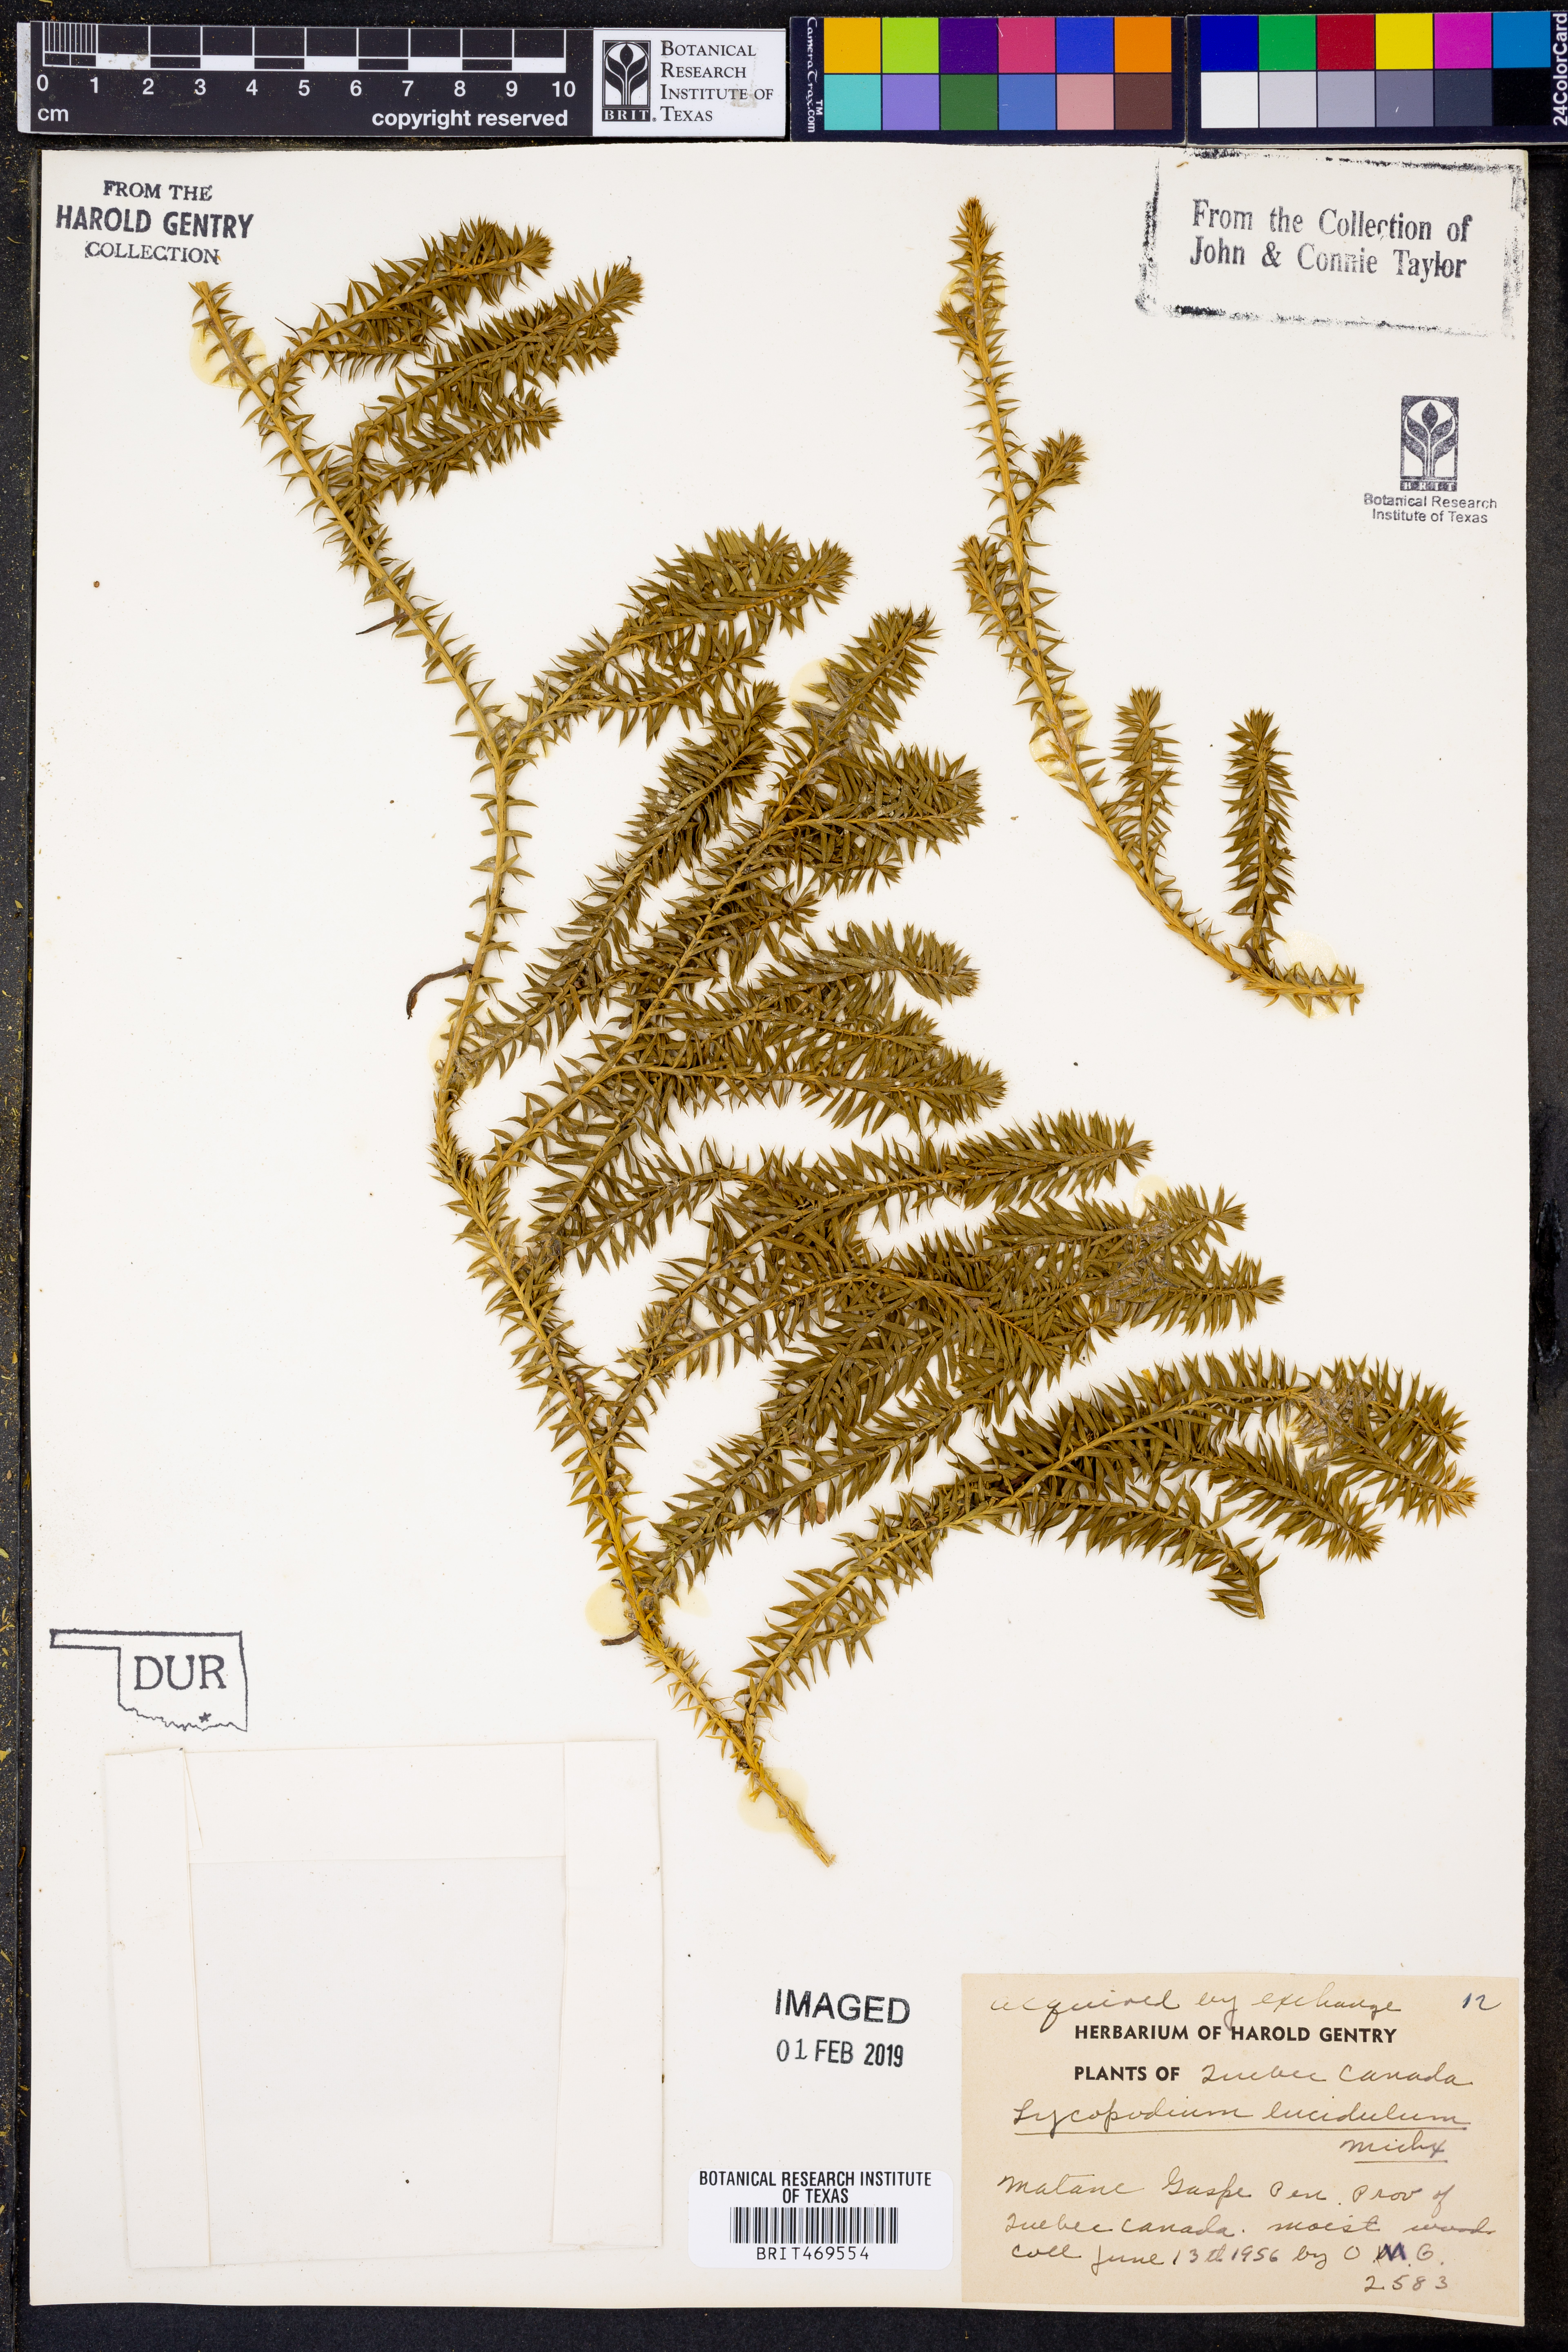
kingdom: Plantae
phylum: Tracheophyta
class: Lycopodiopsida
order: Lycopodiales
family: Lycopodiaceae
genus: Huperzia
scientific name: Huperzia lucidula
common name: Shining clubmoss
